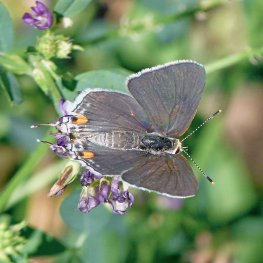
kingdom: Animalia
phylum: Arthropoda
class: Insecta
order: Lepidoptera
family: Lycaenidae
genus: Strymon
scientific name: Strymon melinus
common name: Gray Hairstreak
